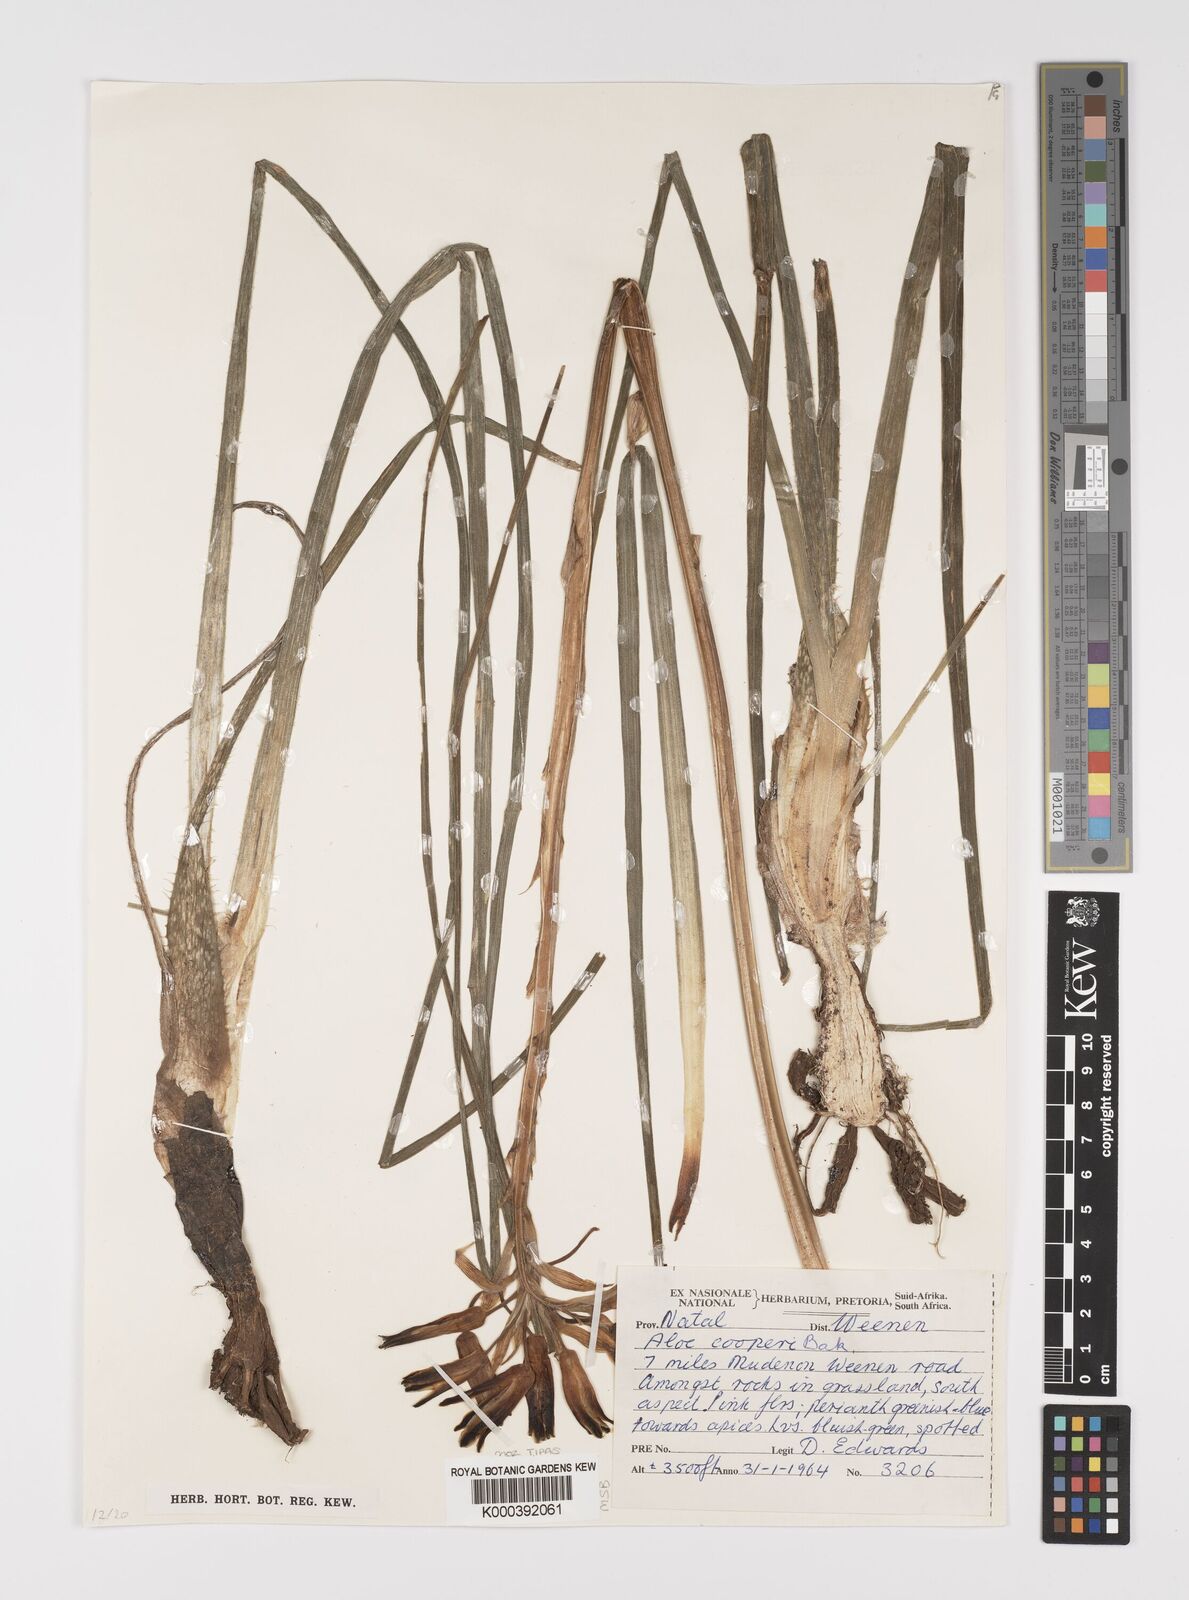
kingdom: Plantae
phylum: Tracheophyta
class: Liliopsida
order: Asparagales
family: Asphodelaceae
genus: Aloe
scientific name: Aloe cooperi
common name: Cooper's aloe
